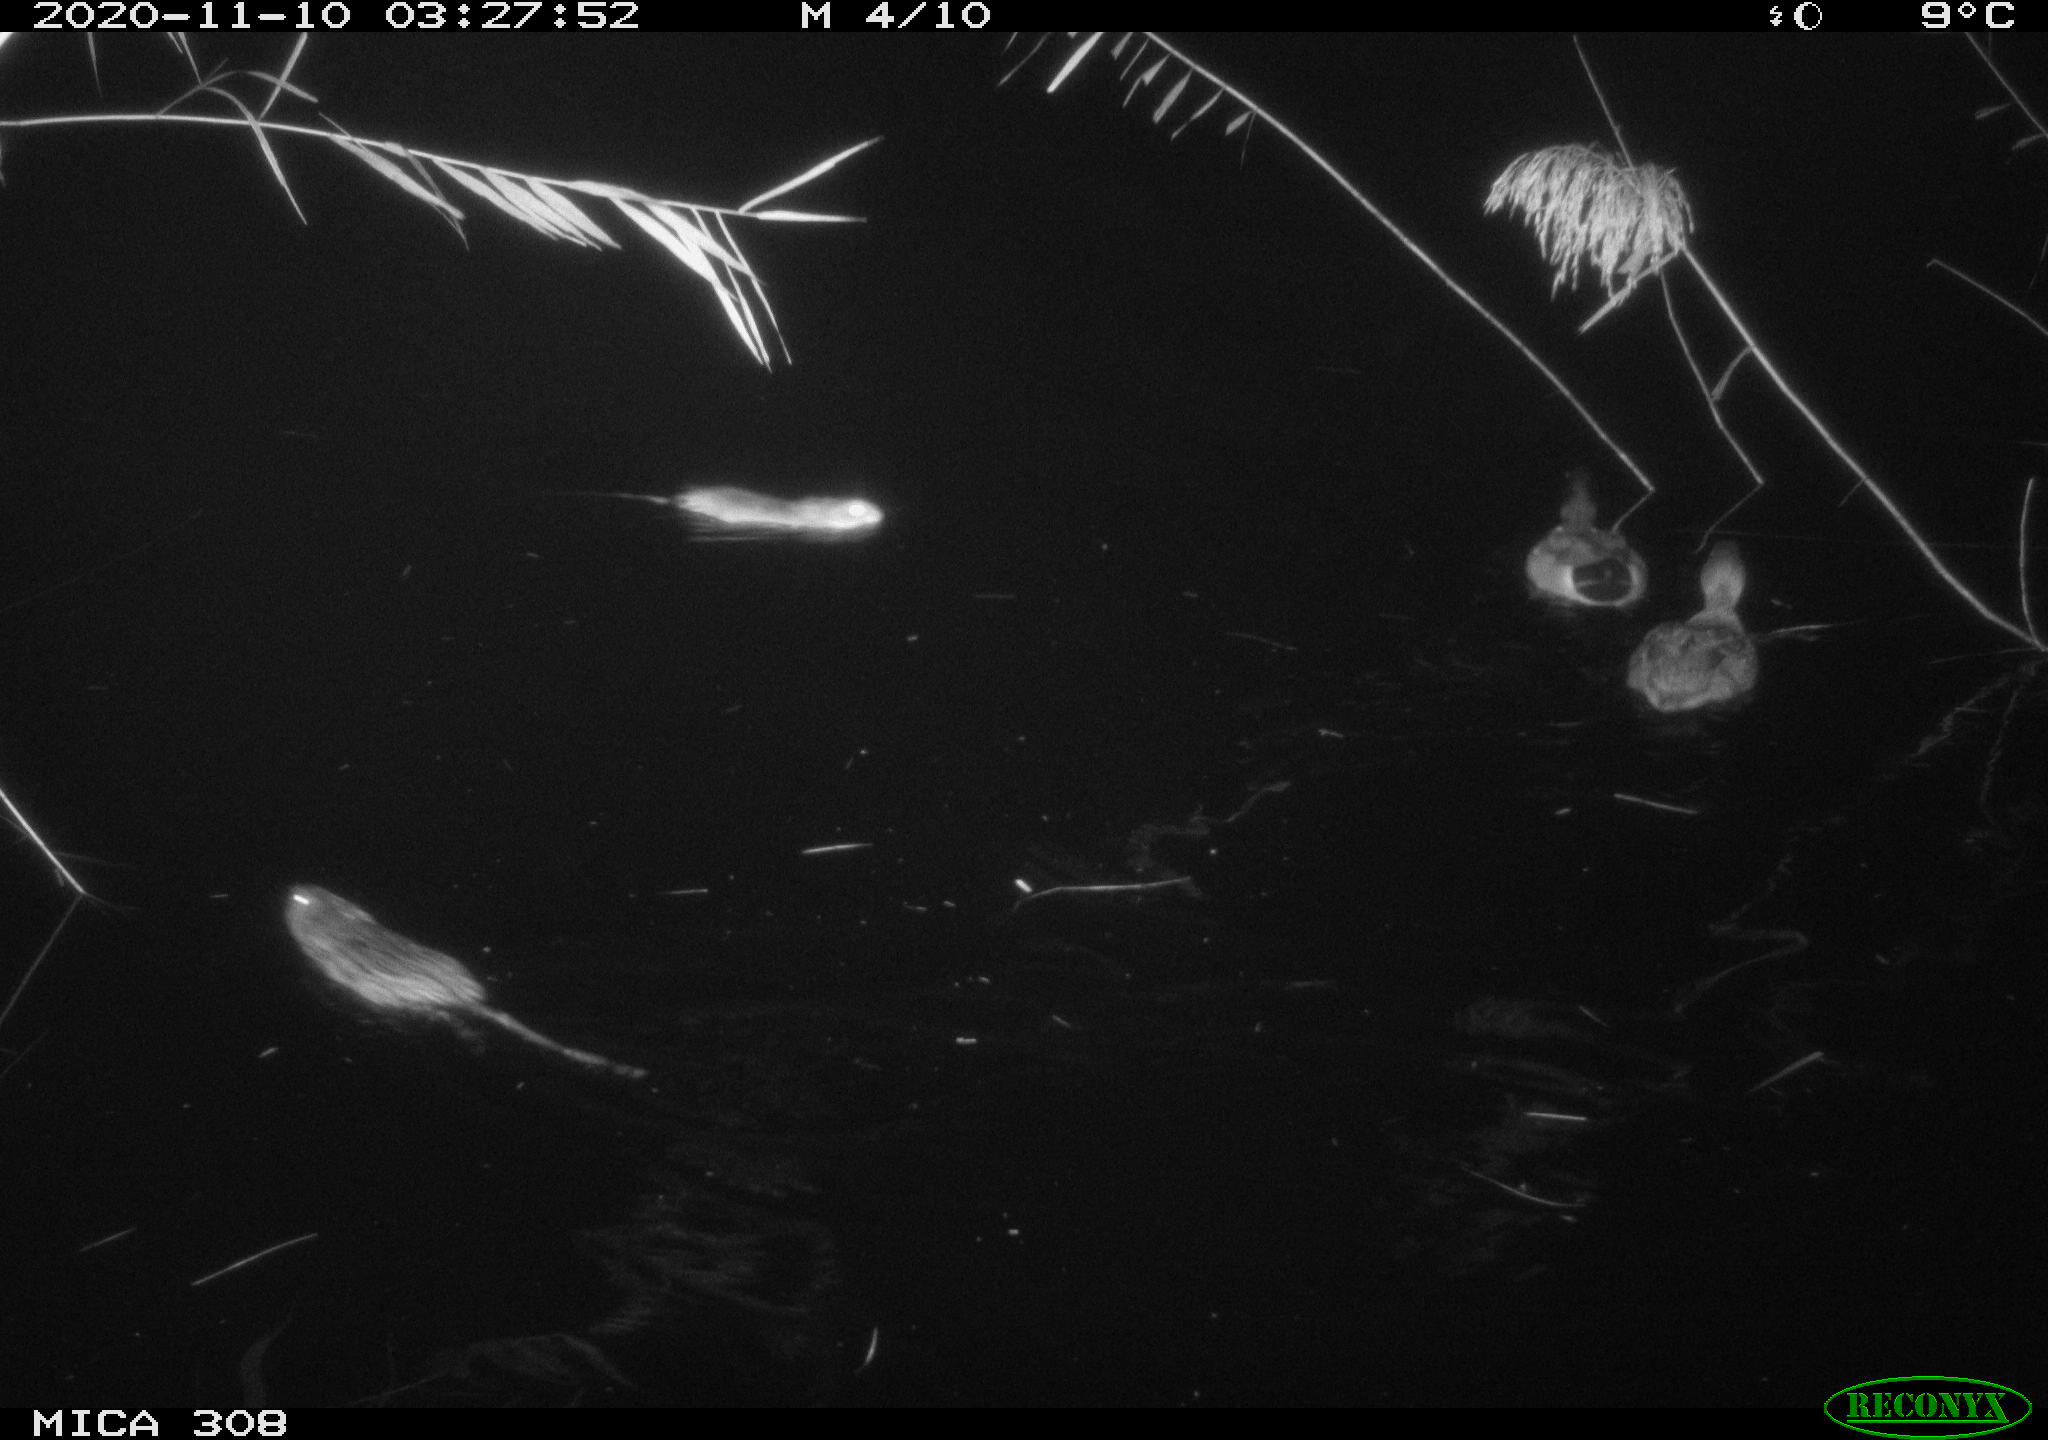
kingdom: Animalia
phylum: Chordata
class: Mammalia
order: Rodentia
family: Cricetidae
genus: Ondatra
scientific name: Ondatra zibethicus
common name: Muskrat
